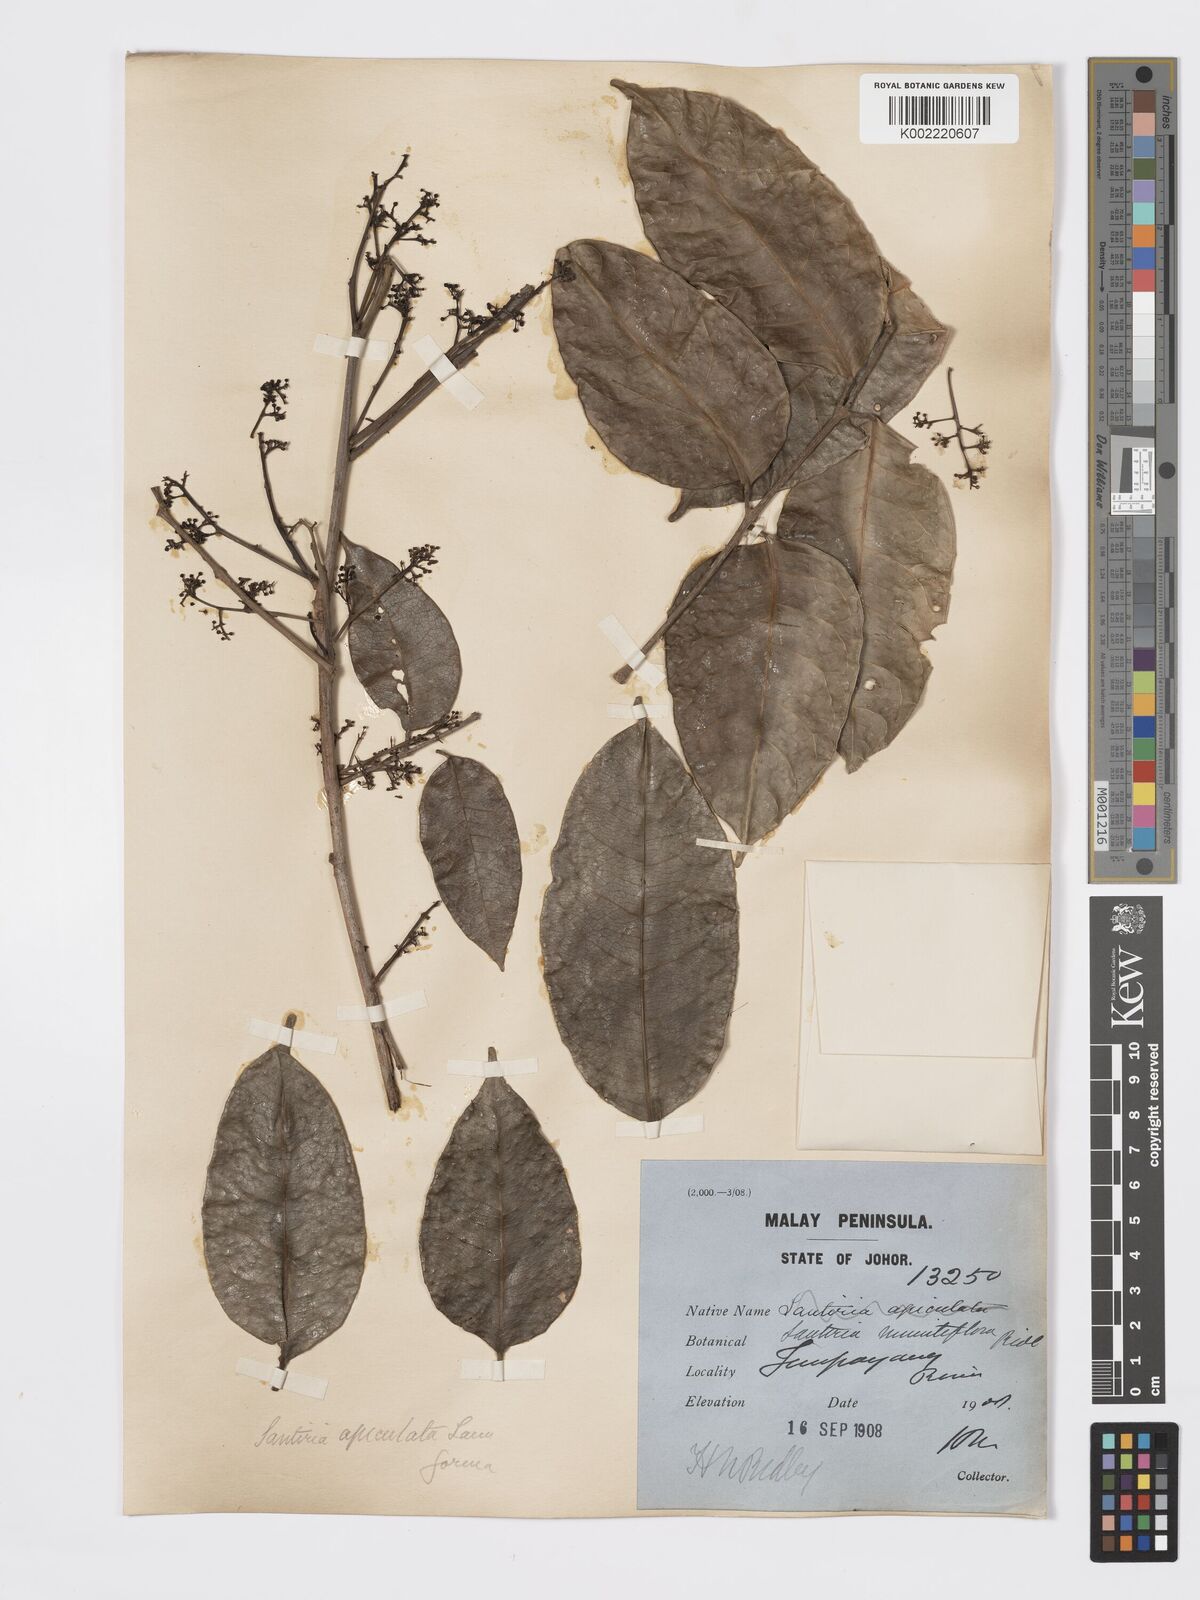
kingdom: Plantae
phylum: Tracheophyta
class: Magnoliopsida
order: Sapindales
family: Burseraceae
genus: Santiria
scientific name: Santiria apiculata
